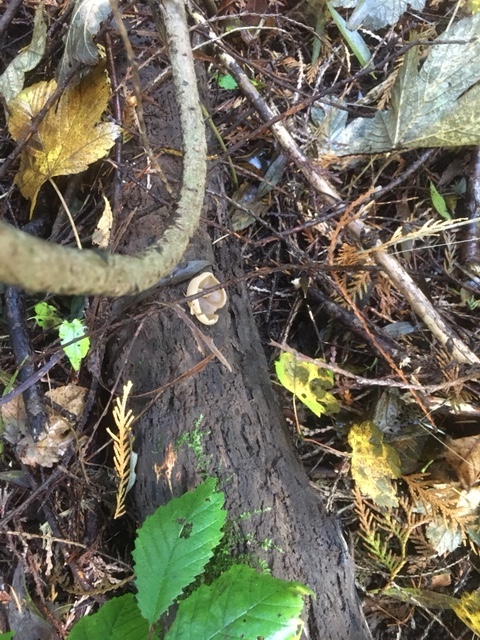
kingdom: Fungi
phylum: Ascomycota
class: Pezizomycetes
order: Pezizales
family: Pezizaceae
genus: Peziza
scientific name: Peziza varia
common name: Ved-bægersvamp
